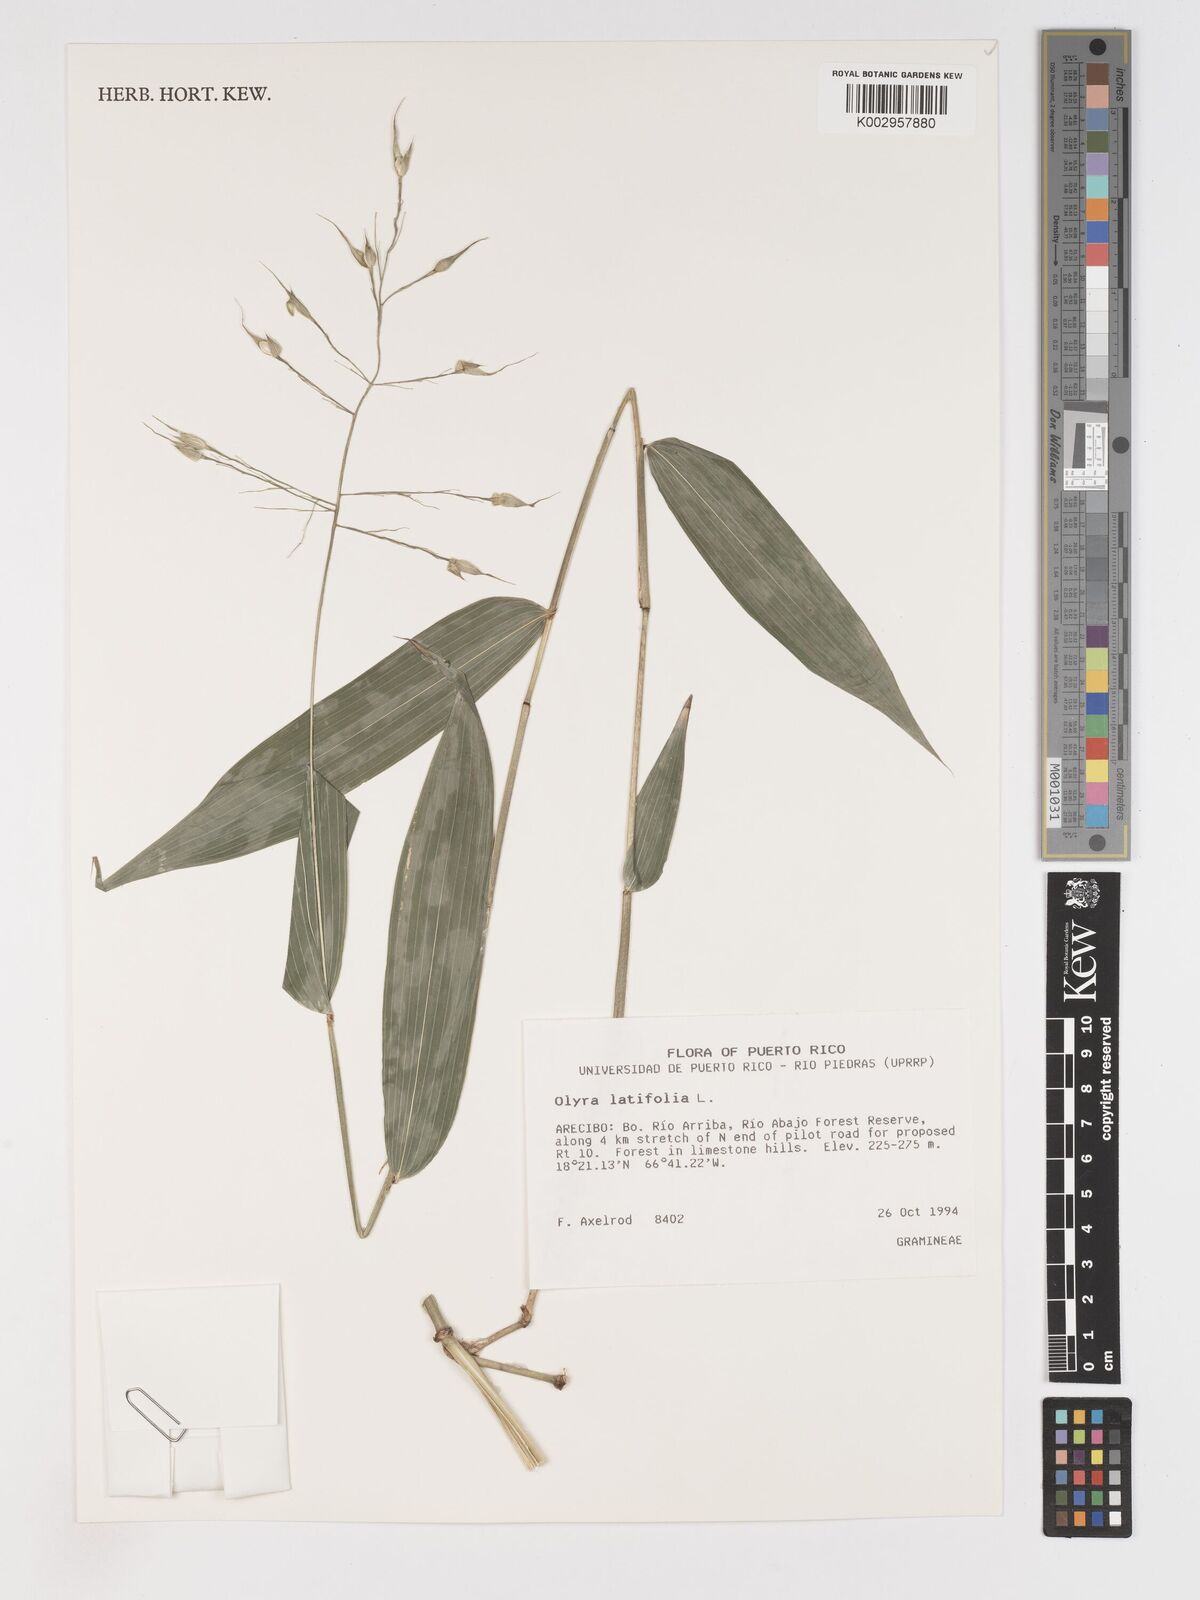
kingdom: Plantae
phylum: Tracheophyta
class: Liliopsida
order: Poales
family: Poaceae
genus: Olyra
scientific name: Olyra latifolia
